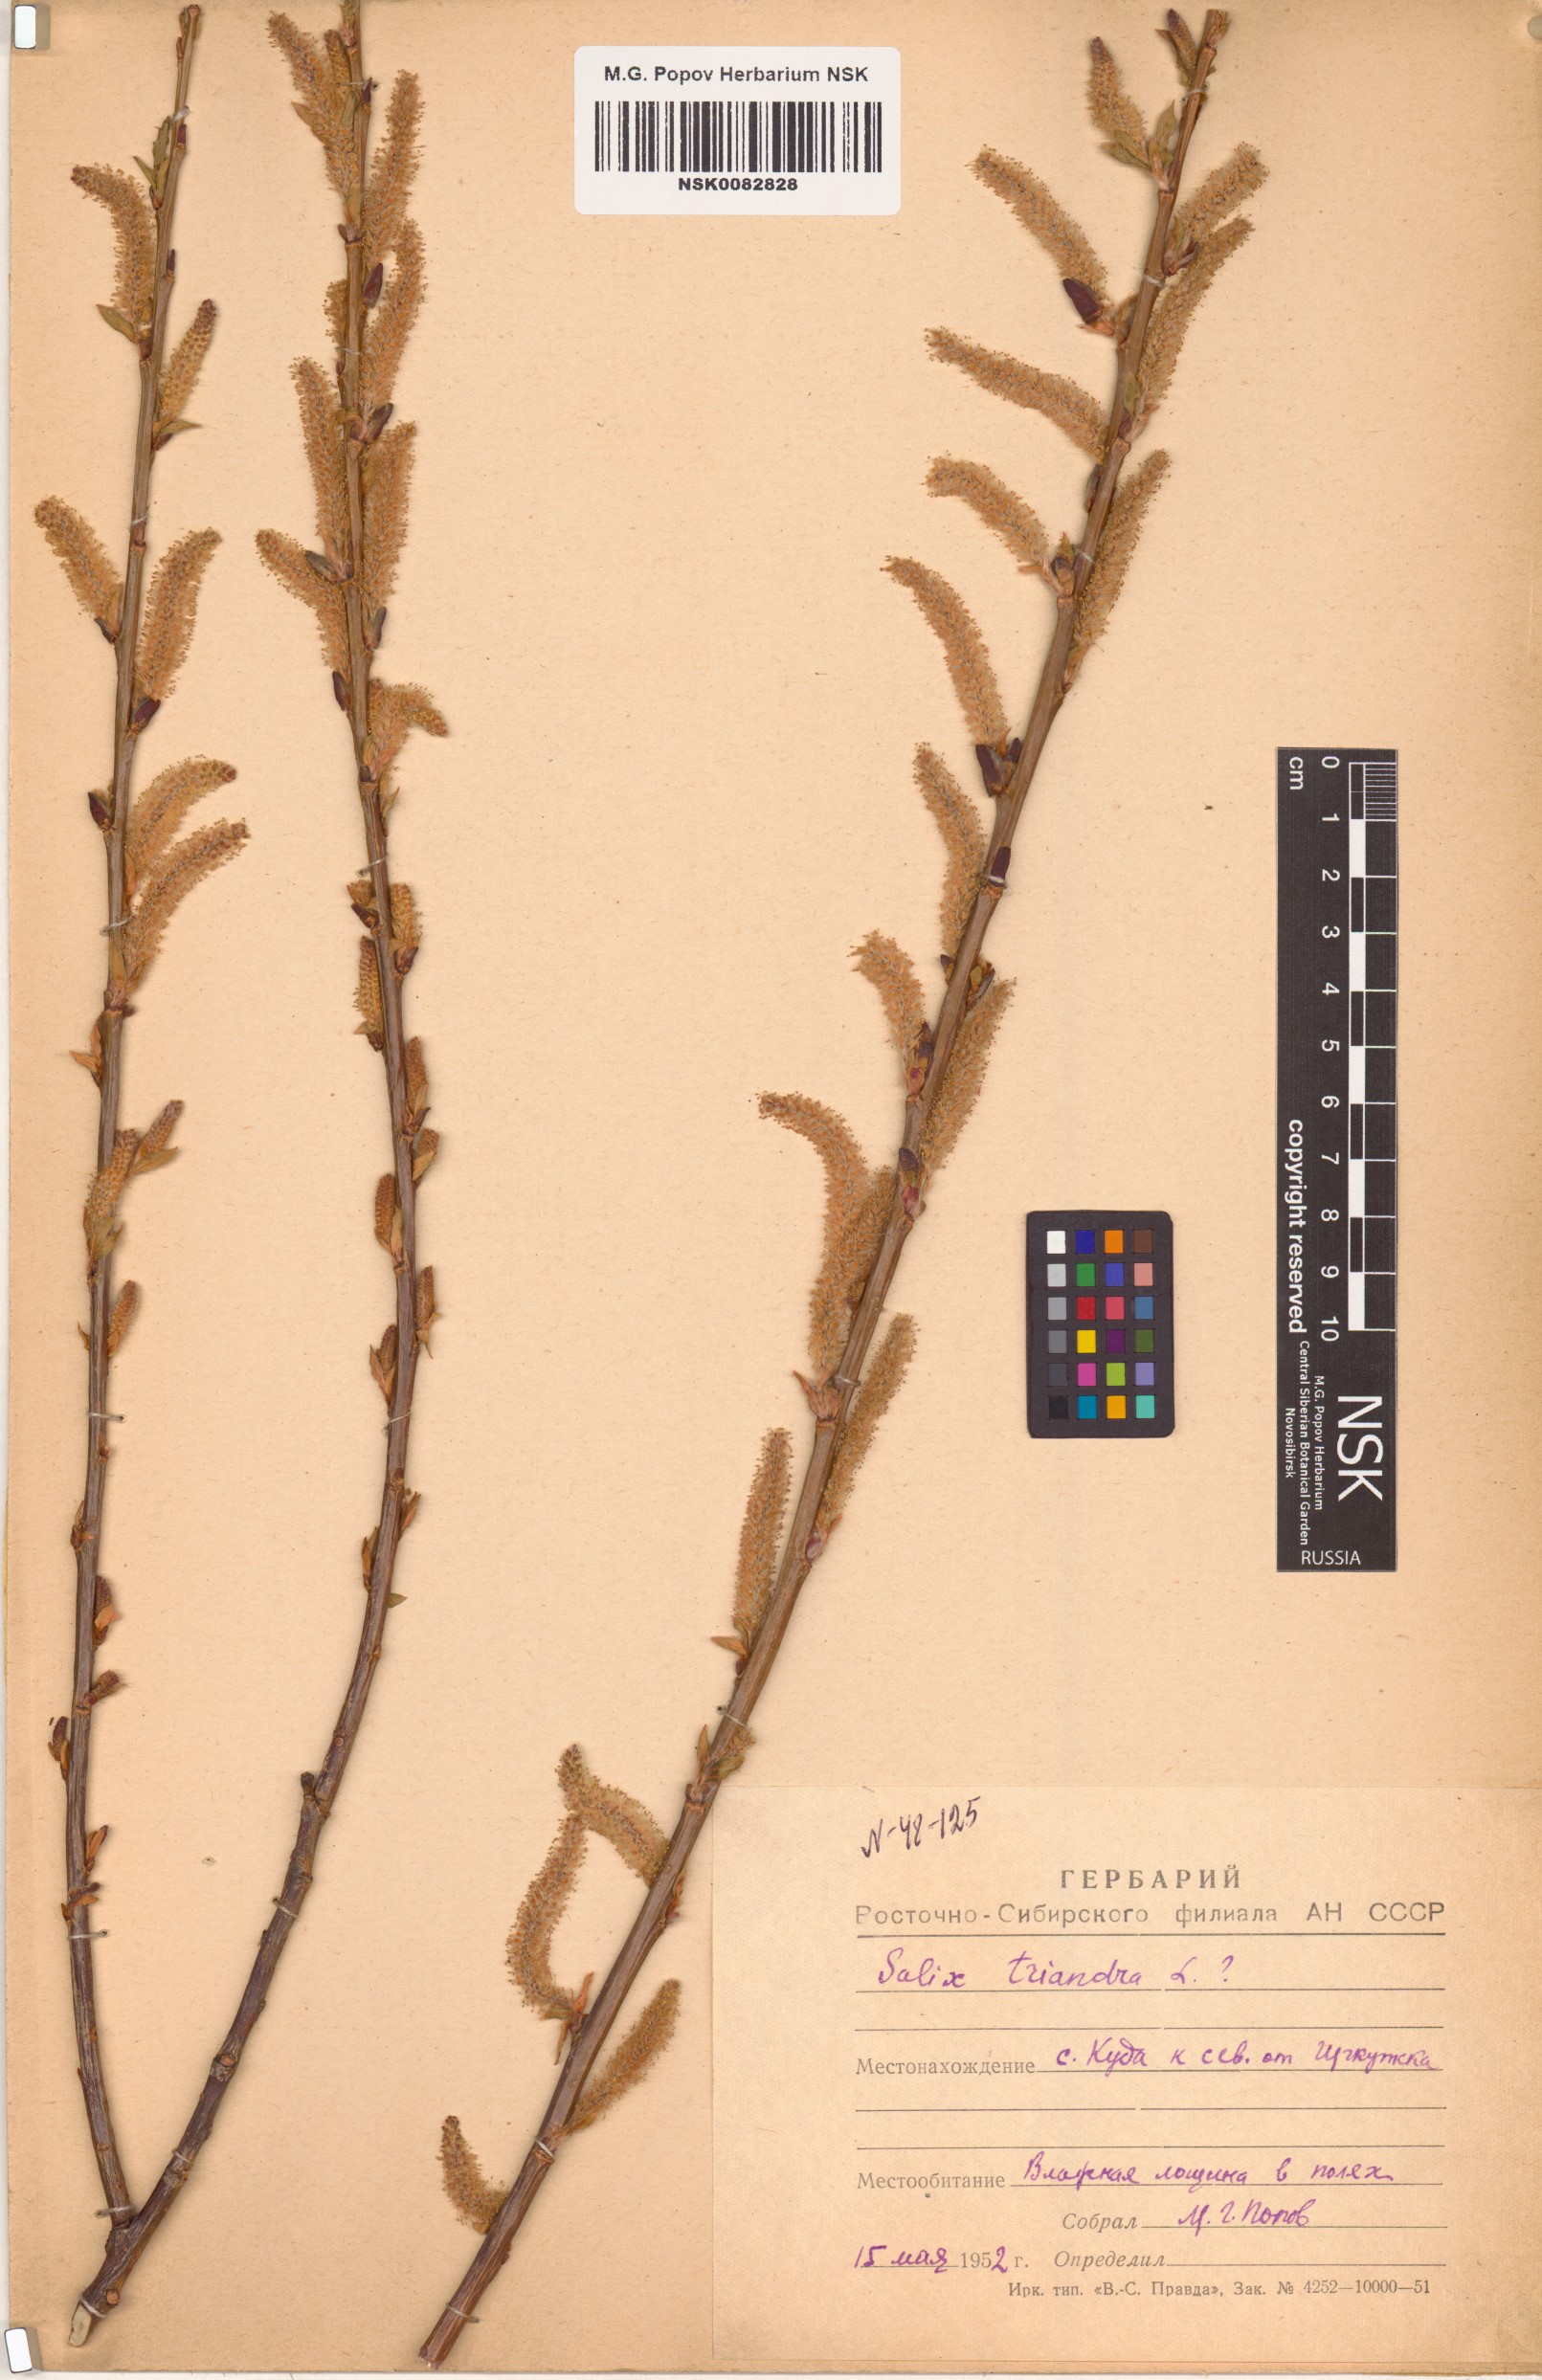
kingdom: Plantae
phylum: Tracheophyta
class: Magnoliopsida
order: Malpighiales
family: Salicaceae
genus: Salix
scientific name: Salix triandra
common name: Almond willow
